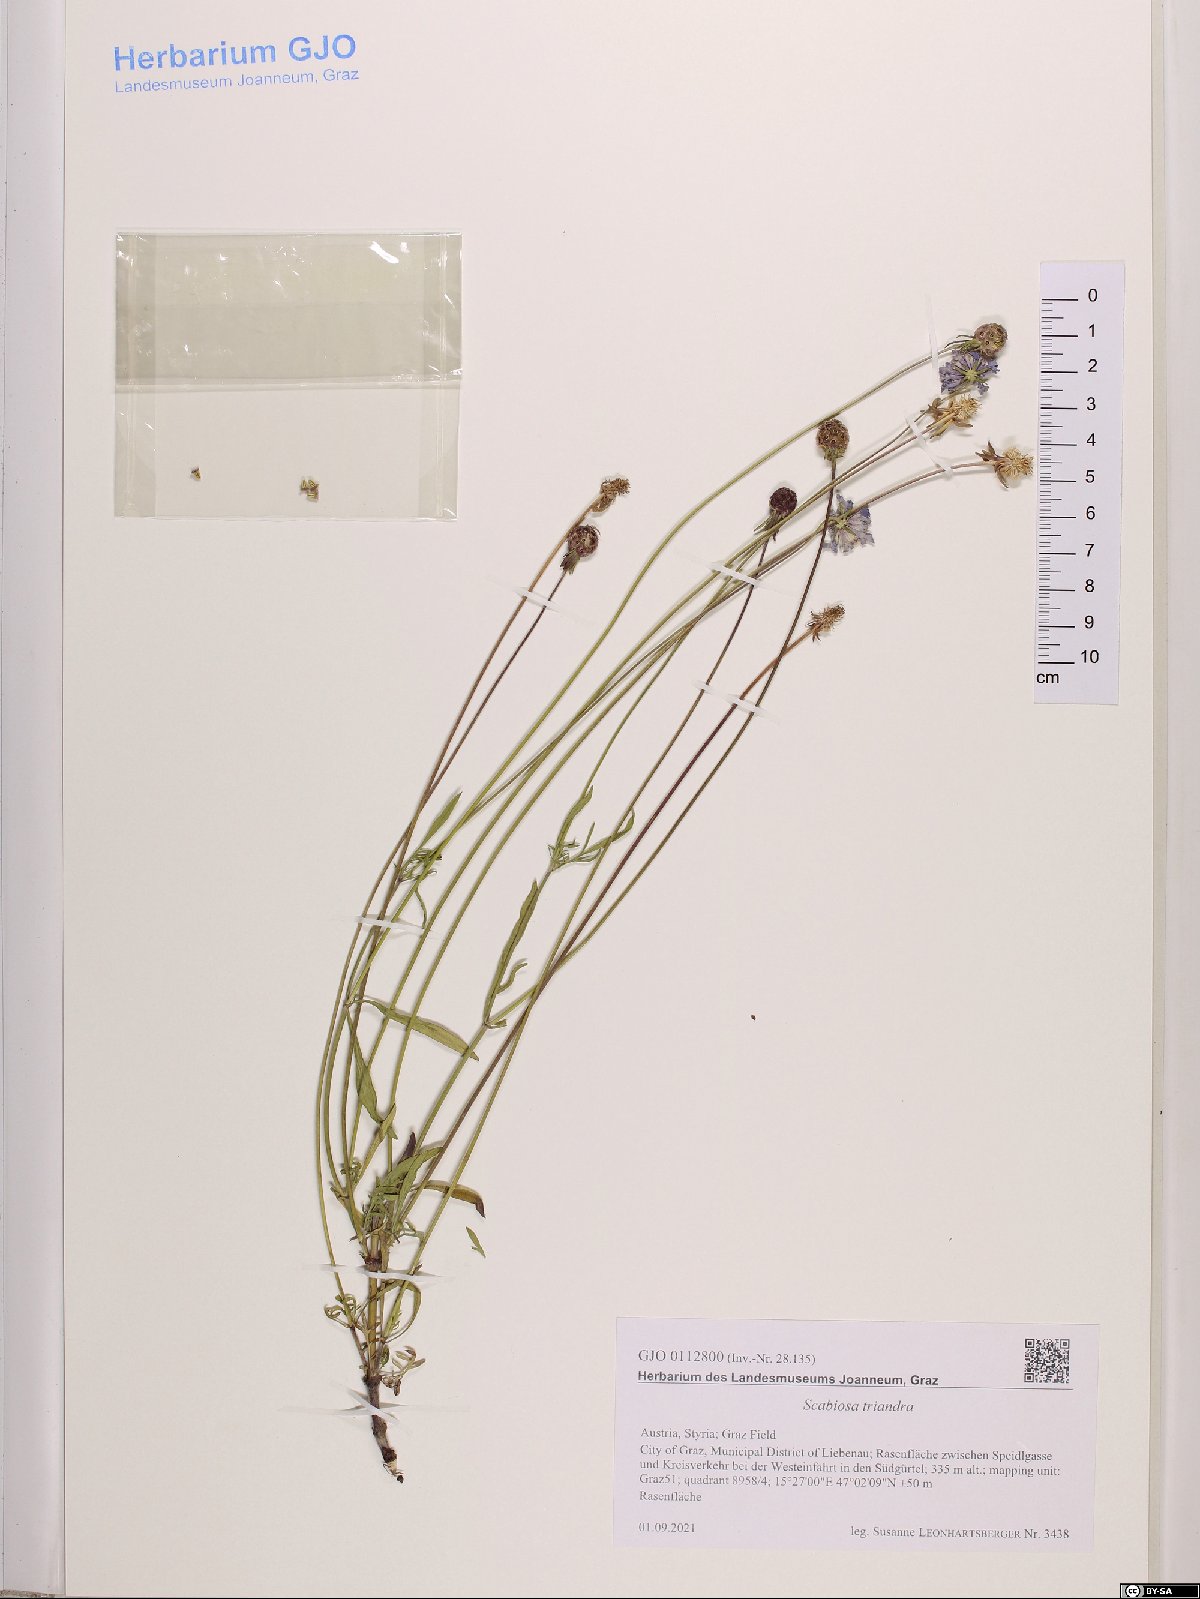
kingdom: Plantae
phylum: Tracheophyta
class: Magnoliopsida
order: Dipsacales
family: Caprifoliaceae
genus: Scabiosa
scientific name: Scabiosa triandra
